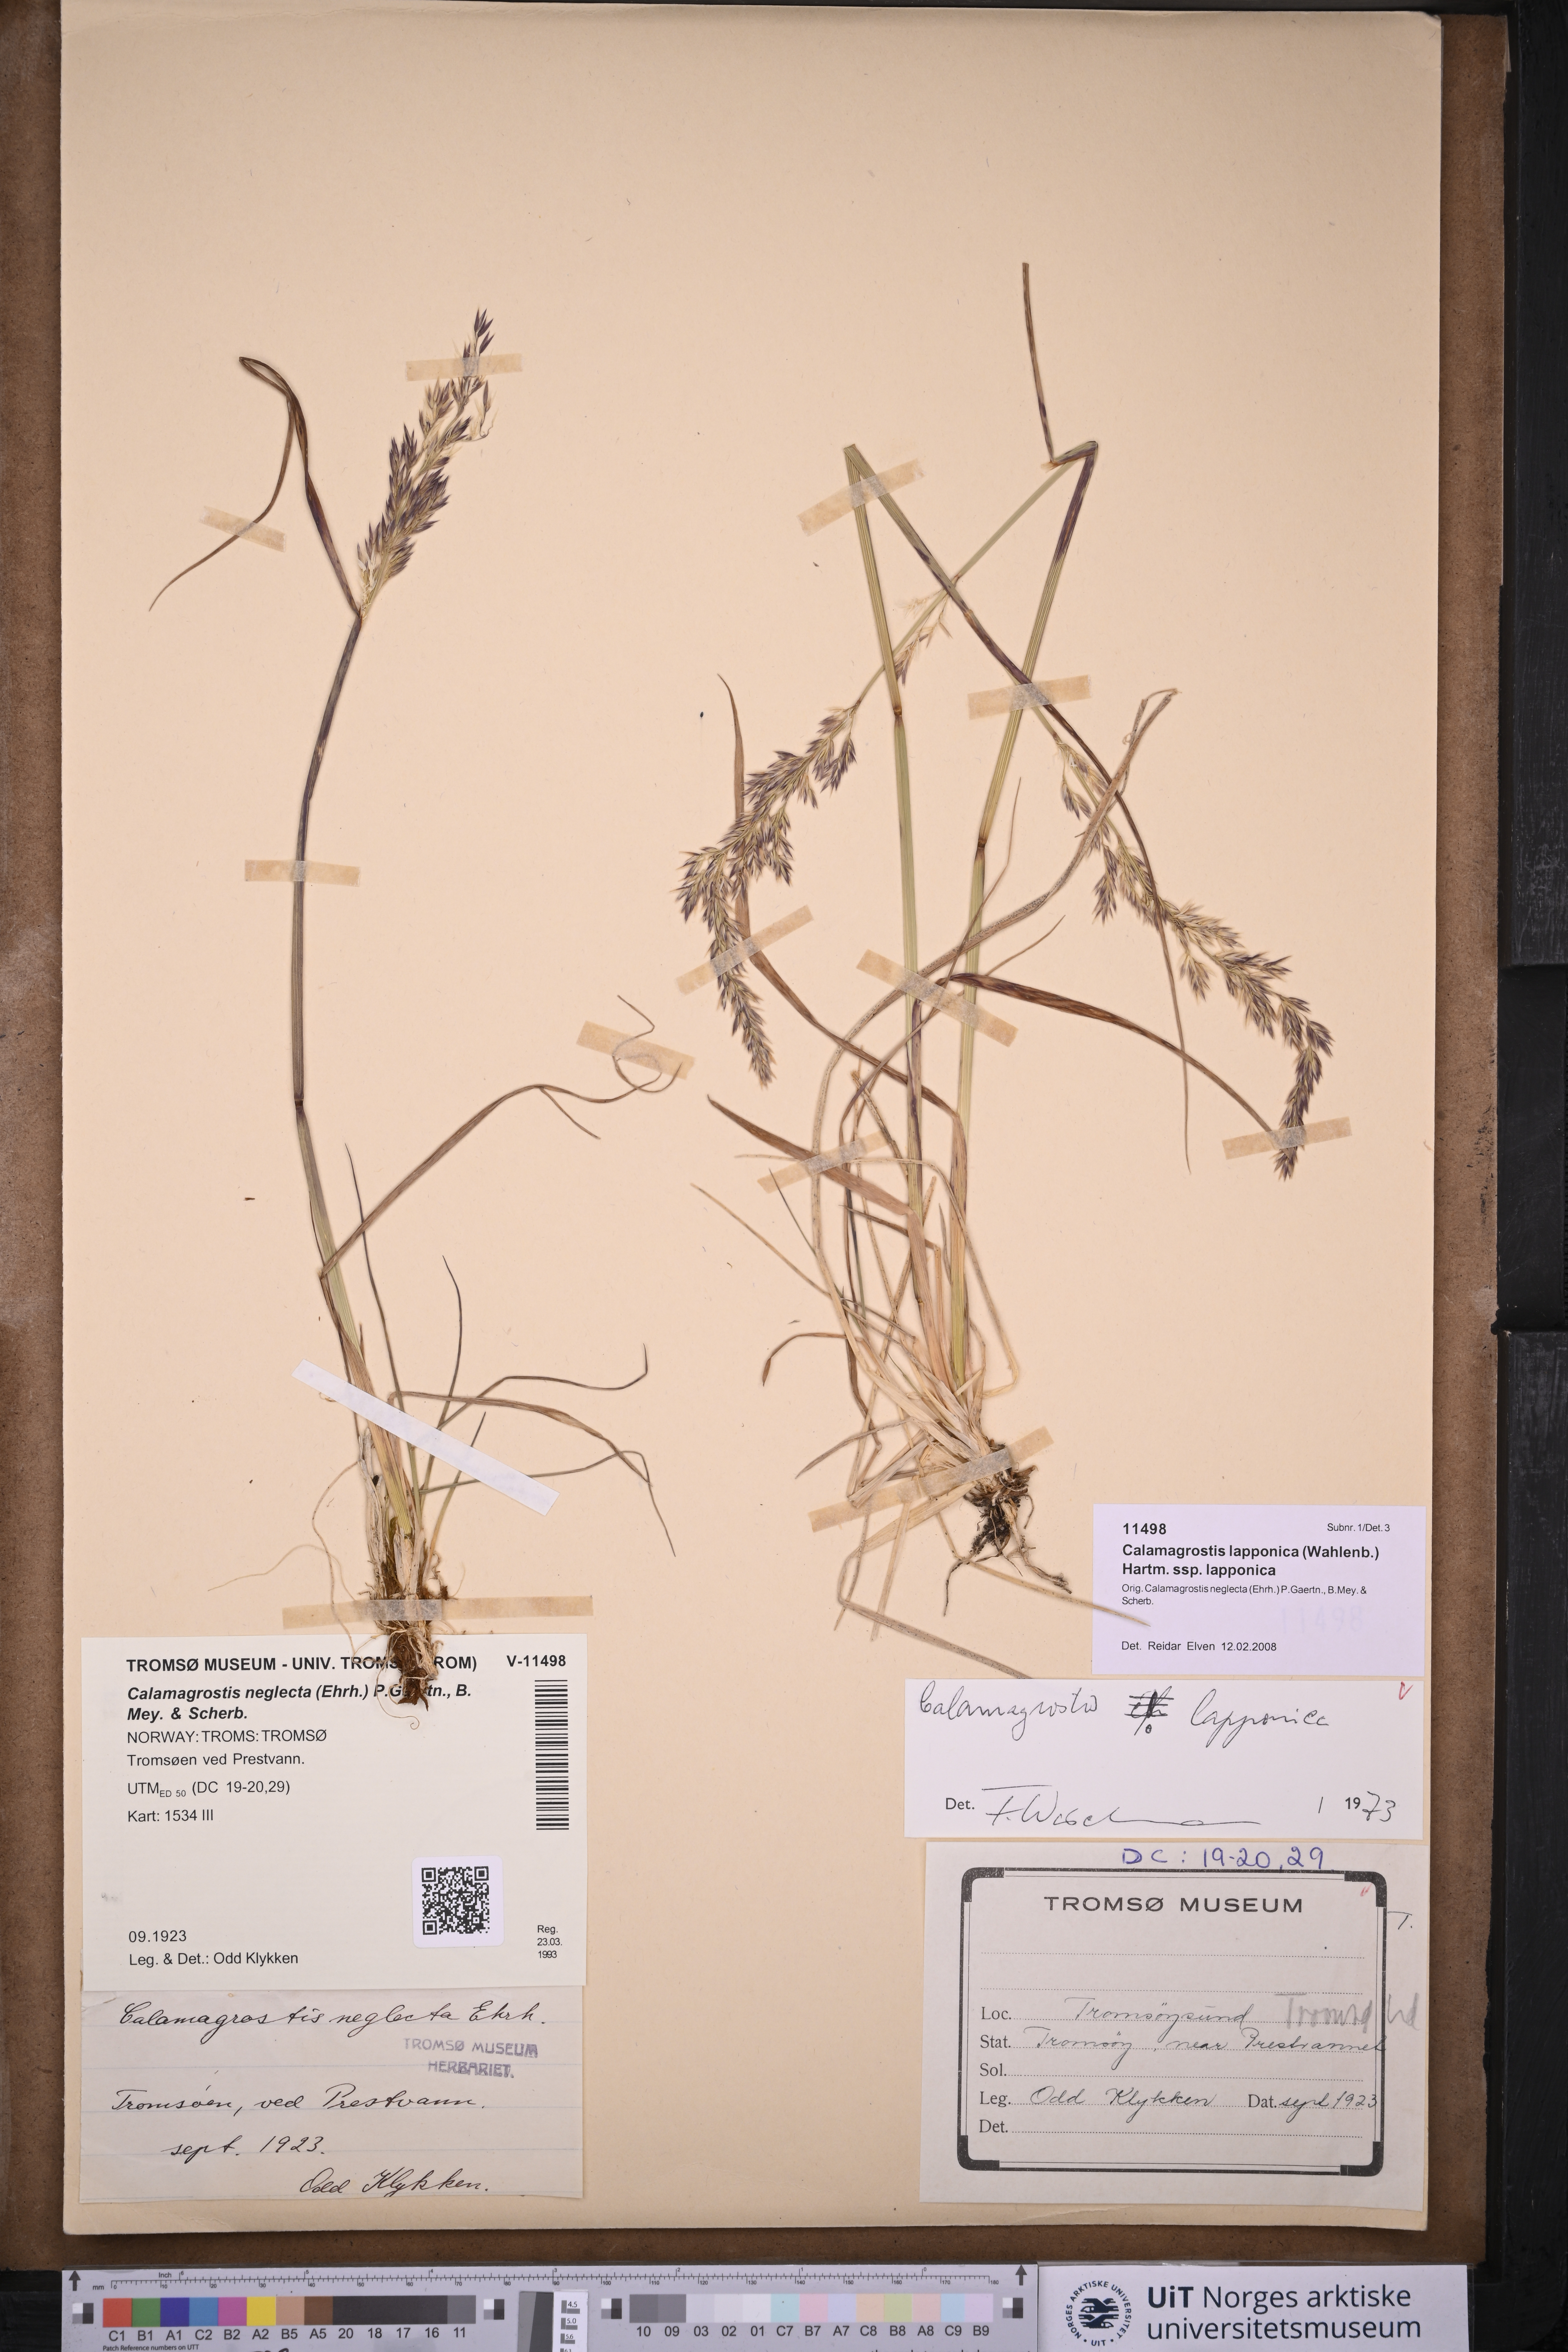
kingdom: Plantae
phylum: Tracheophyta
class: Liliopsida
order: Poales
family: Poaceae
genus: Calamagrostis
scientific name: Calamagrostis lapponica
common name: Lapland reedgrass
